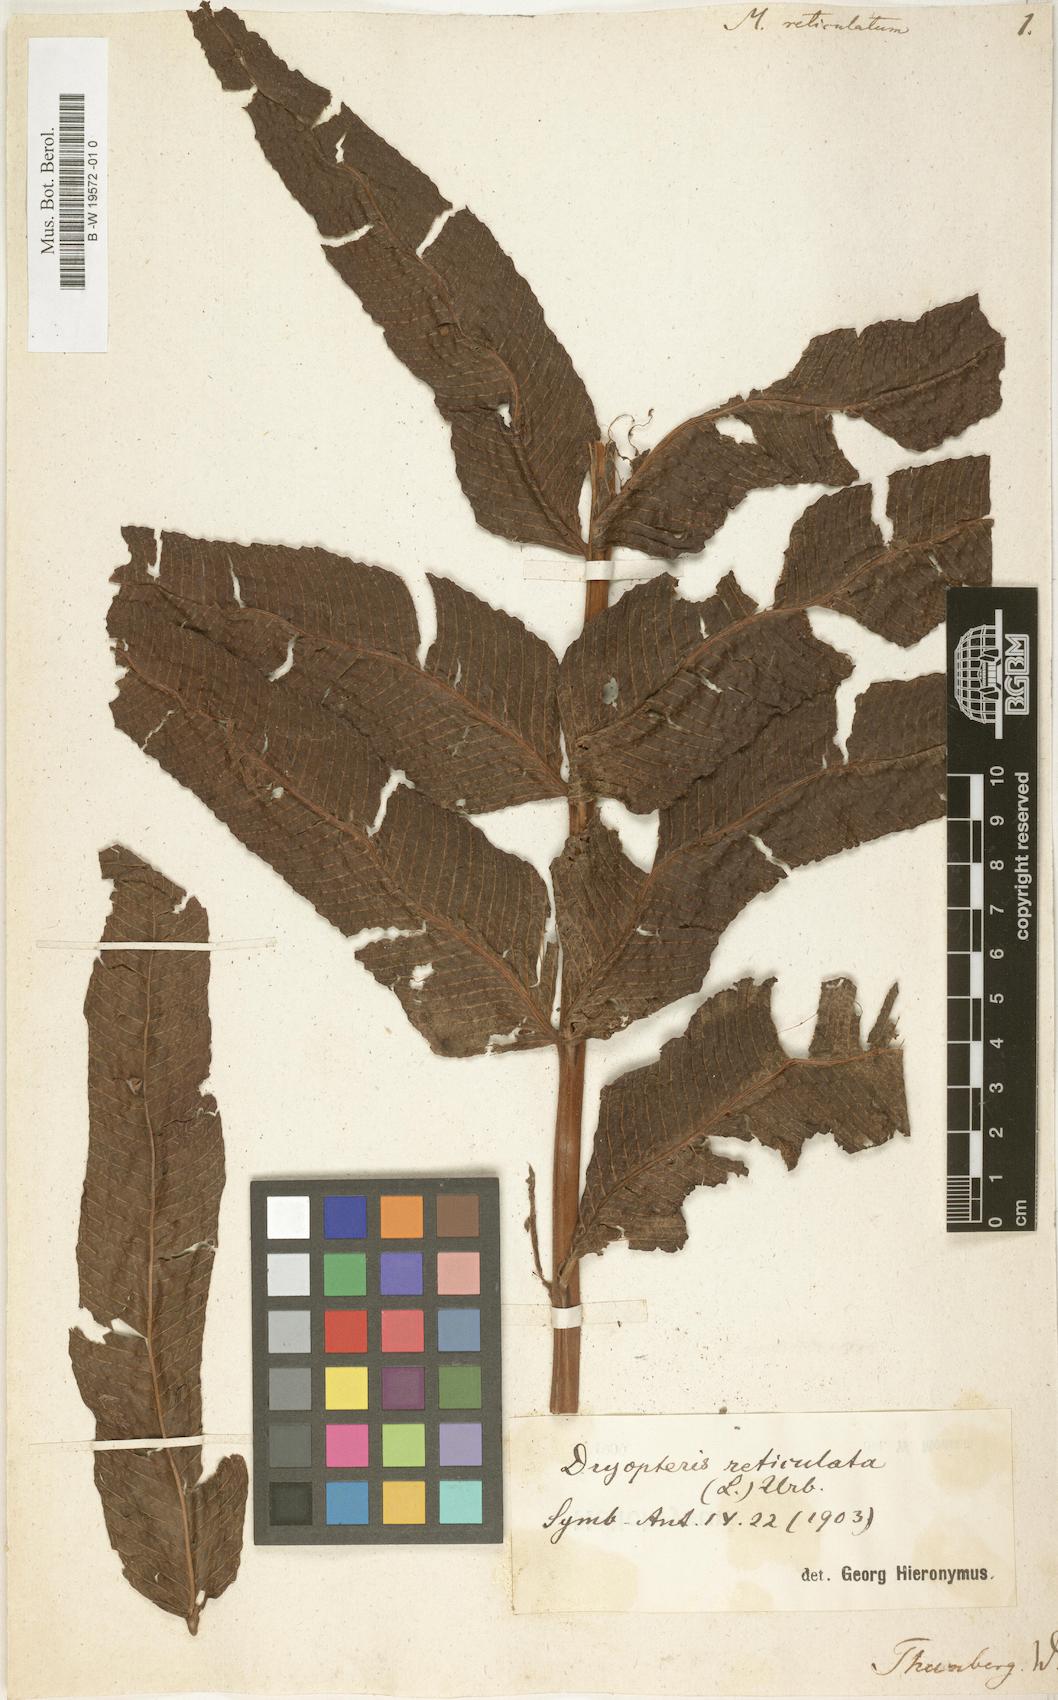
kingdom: Plantae
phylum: Tracheophyta
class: Polypodiopsida
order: Polypodiales
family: Thelypteridaceae
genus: Meniscium
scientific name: Meniscium reticulatum
